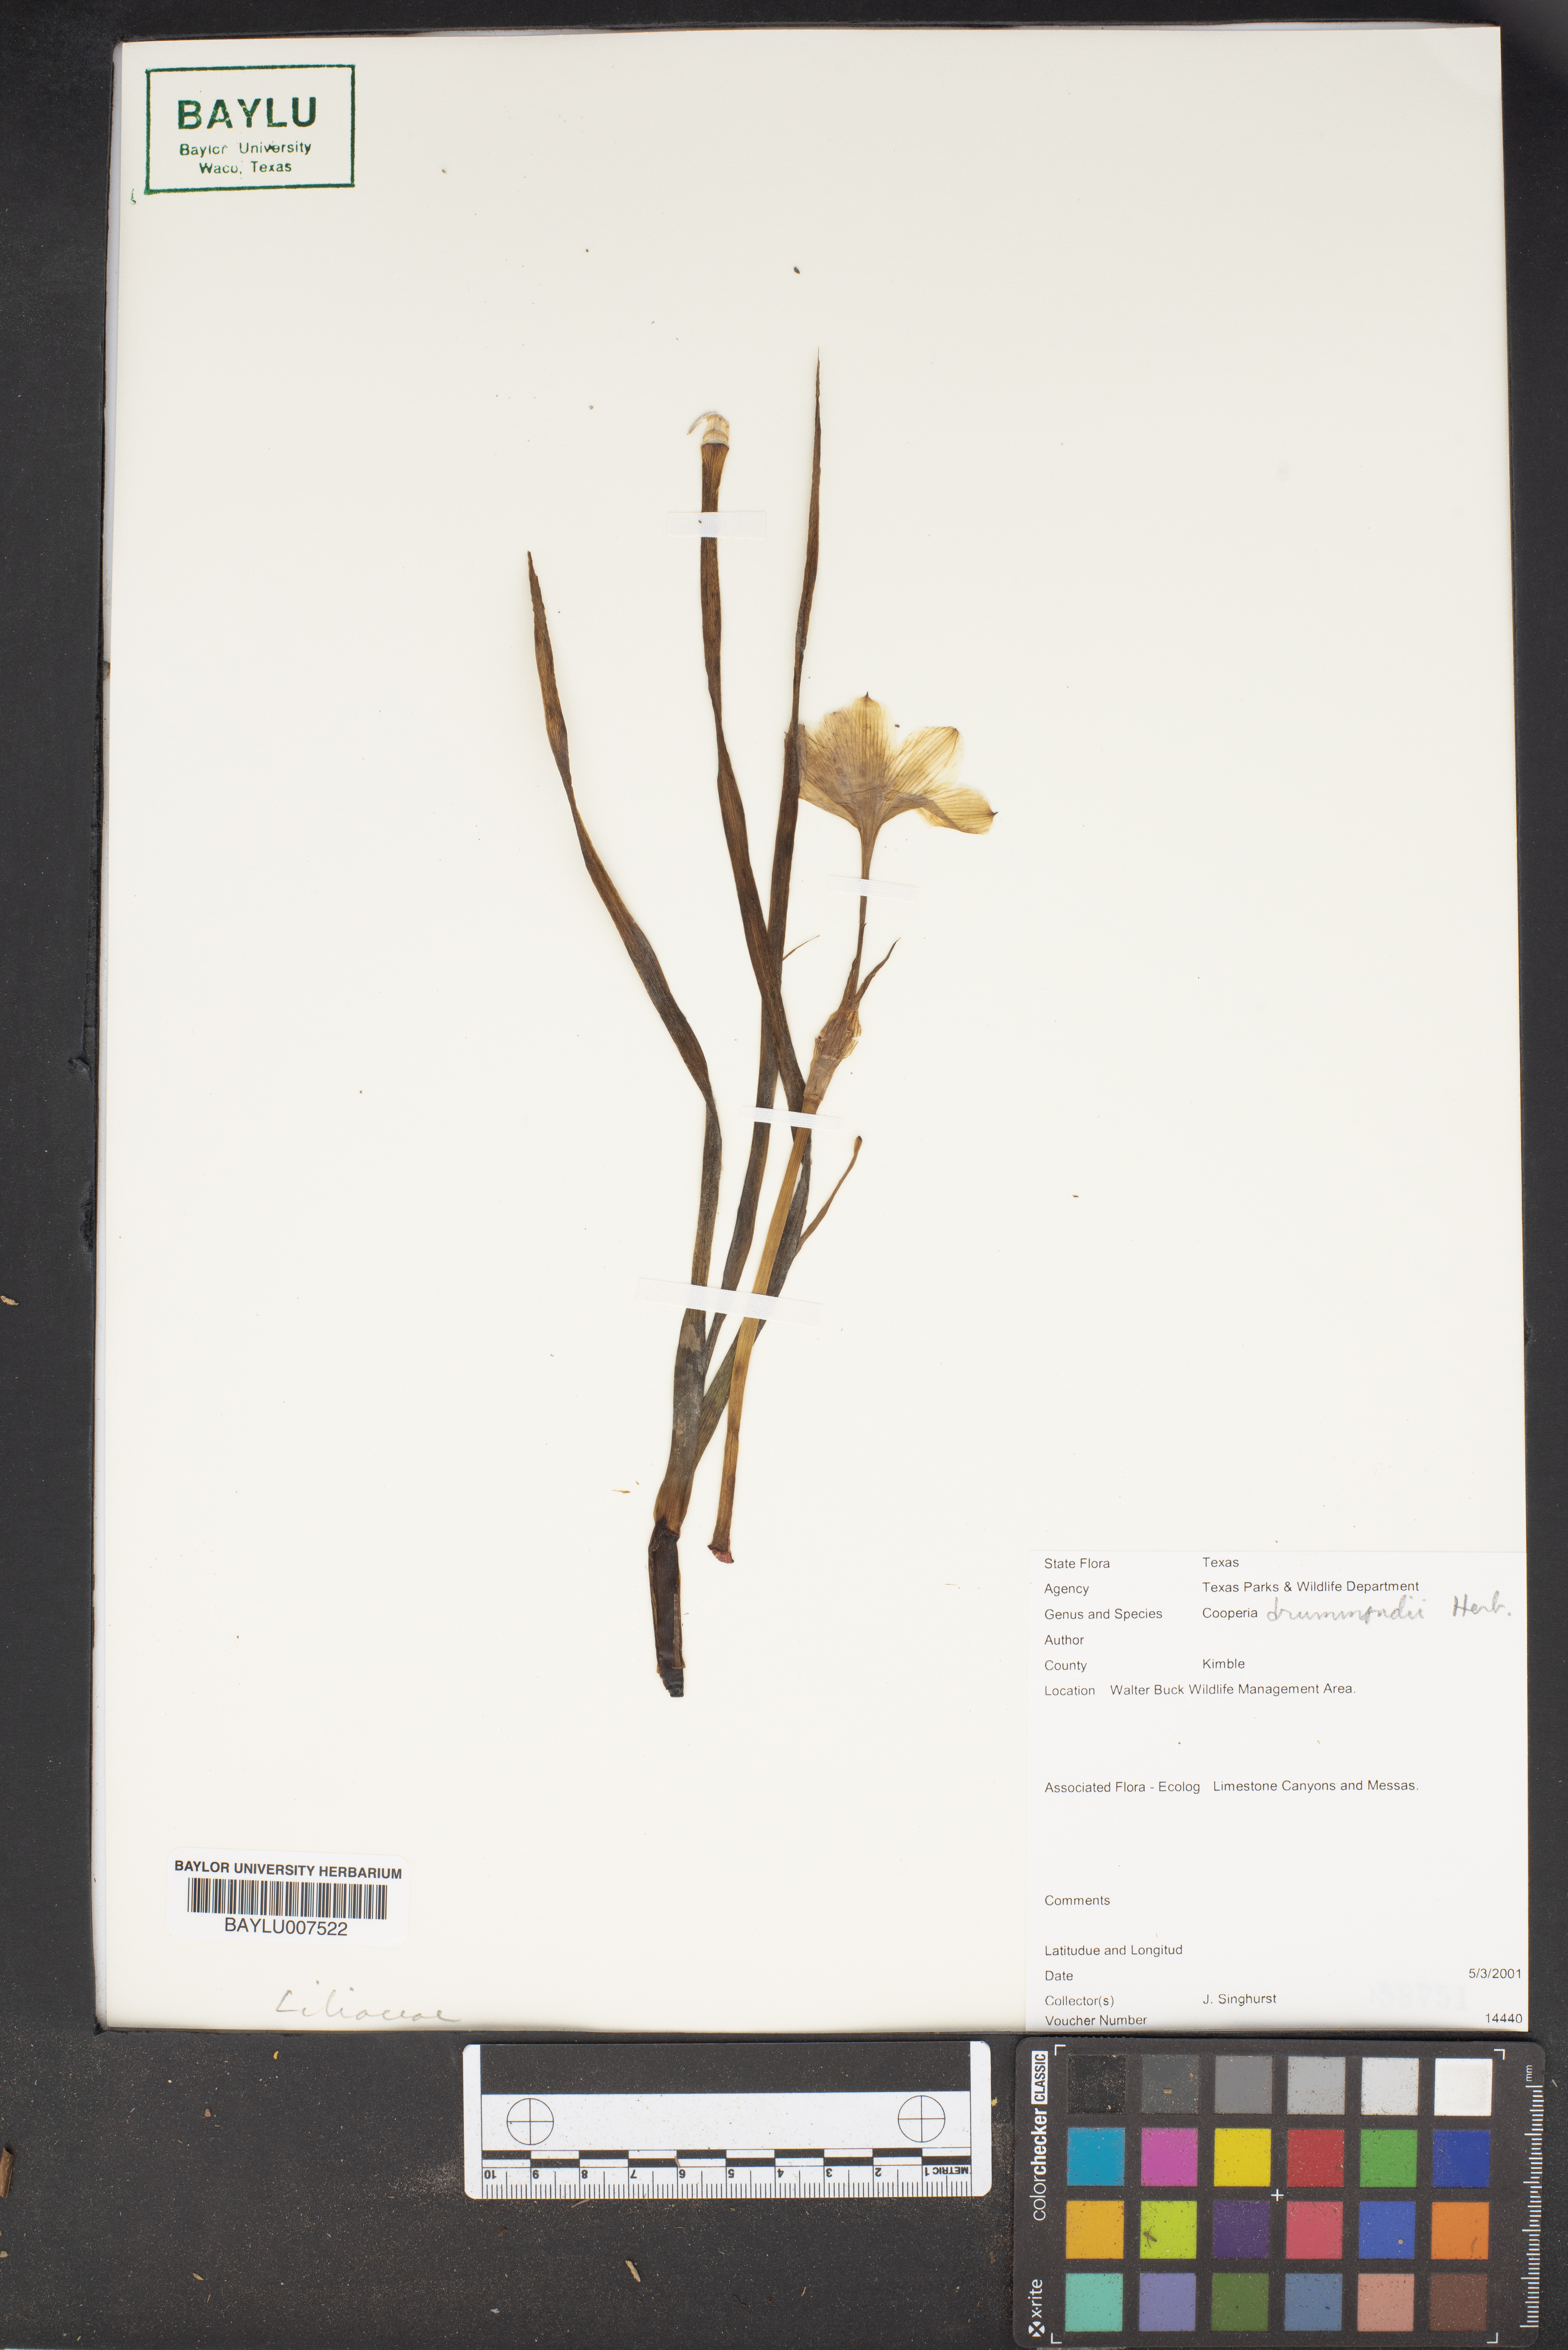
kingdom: Plantae
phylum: Tracheophyta
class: Liliopsida
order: Asparagales
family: Amaryllidaceae
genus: Zephyranthes
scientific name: Zephyranthes chlorosolen
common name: Evening rain-lily
